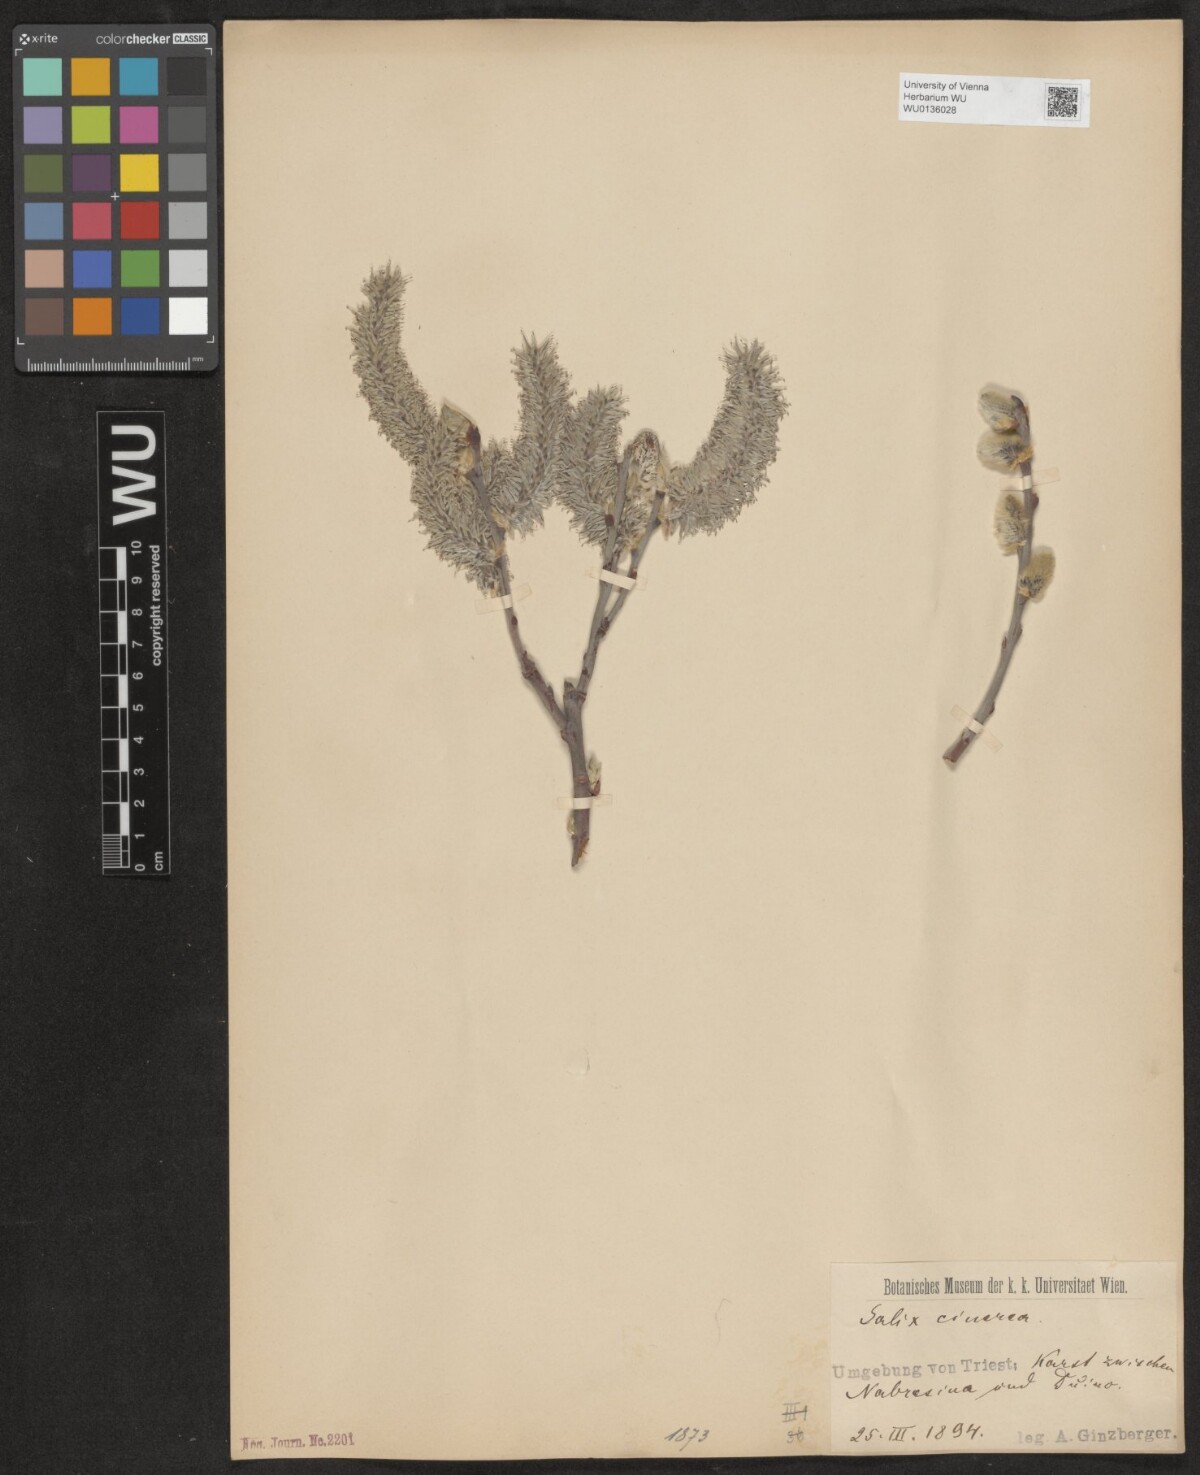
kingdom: Plantae
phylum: Tracheophyta
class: Magnoliopsida
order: Malpighiales
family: Salicaceae
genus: Salix
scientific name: Salix cinerea
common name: Common sallow
